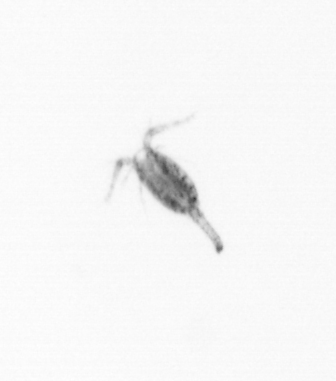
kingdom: Animalia
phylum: Arthropoda
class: Copepoda
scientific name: Copepoda
